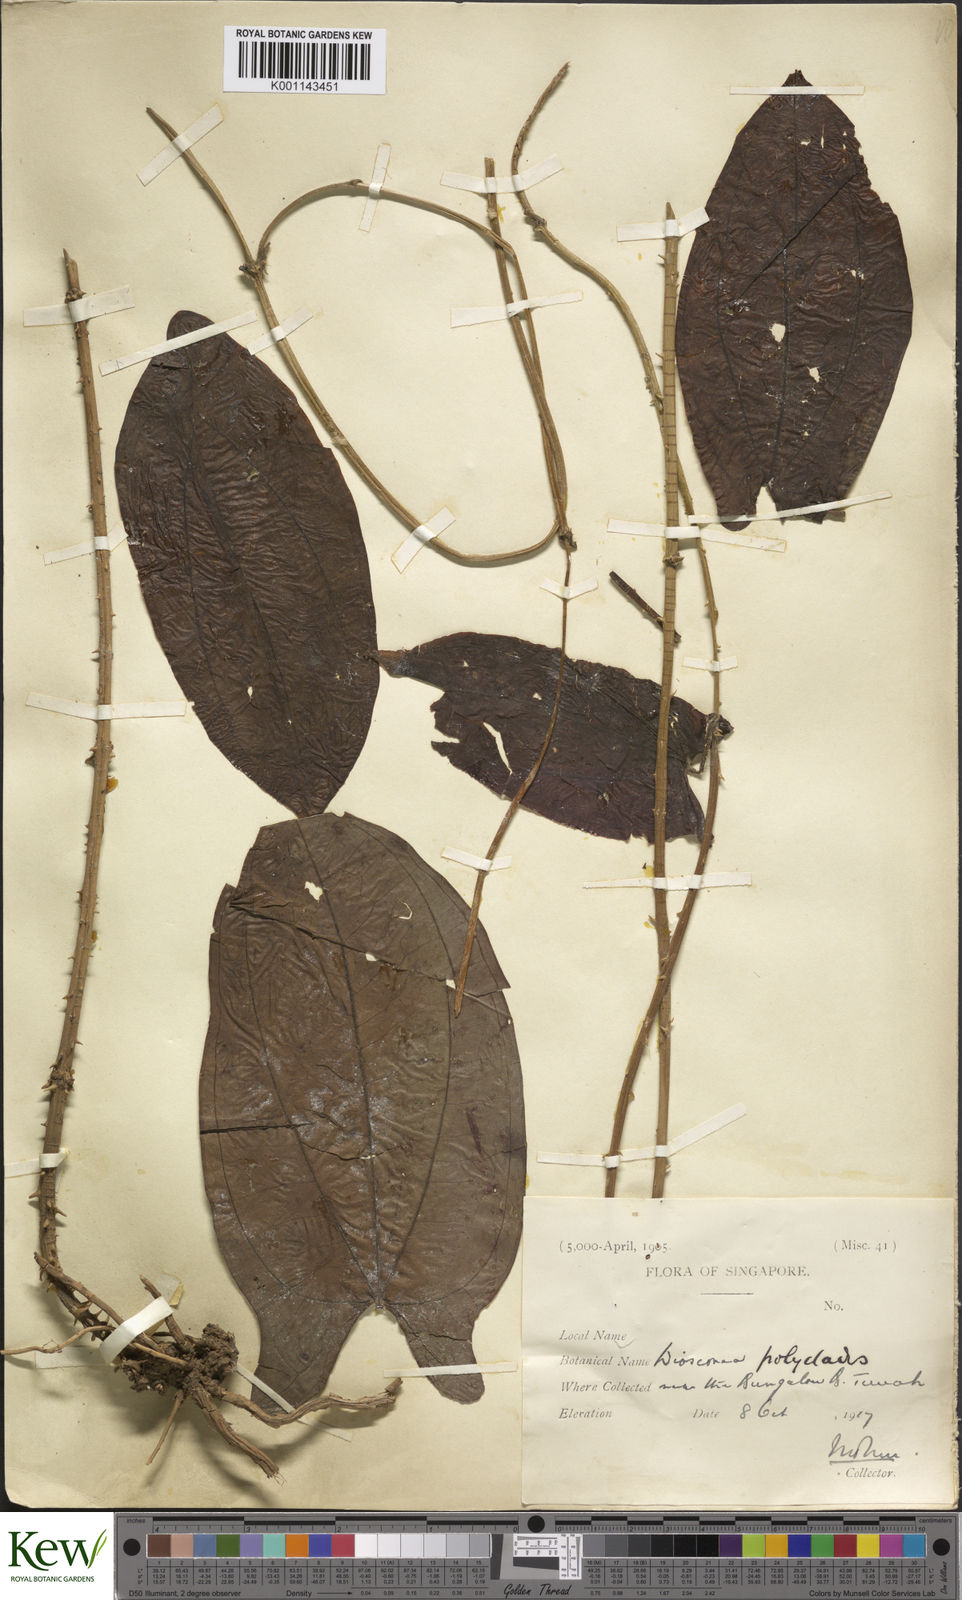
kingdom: Plantae
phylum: Tracheophyta
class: Liliopsida
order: Dioscoreales
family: Dioscoreaceae
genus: Dioscorea
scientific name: Dioscorea polyclados
